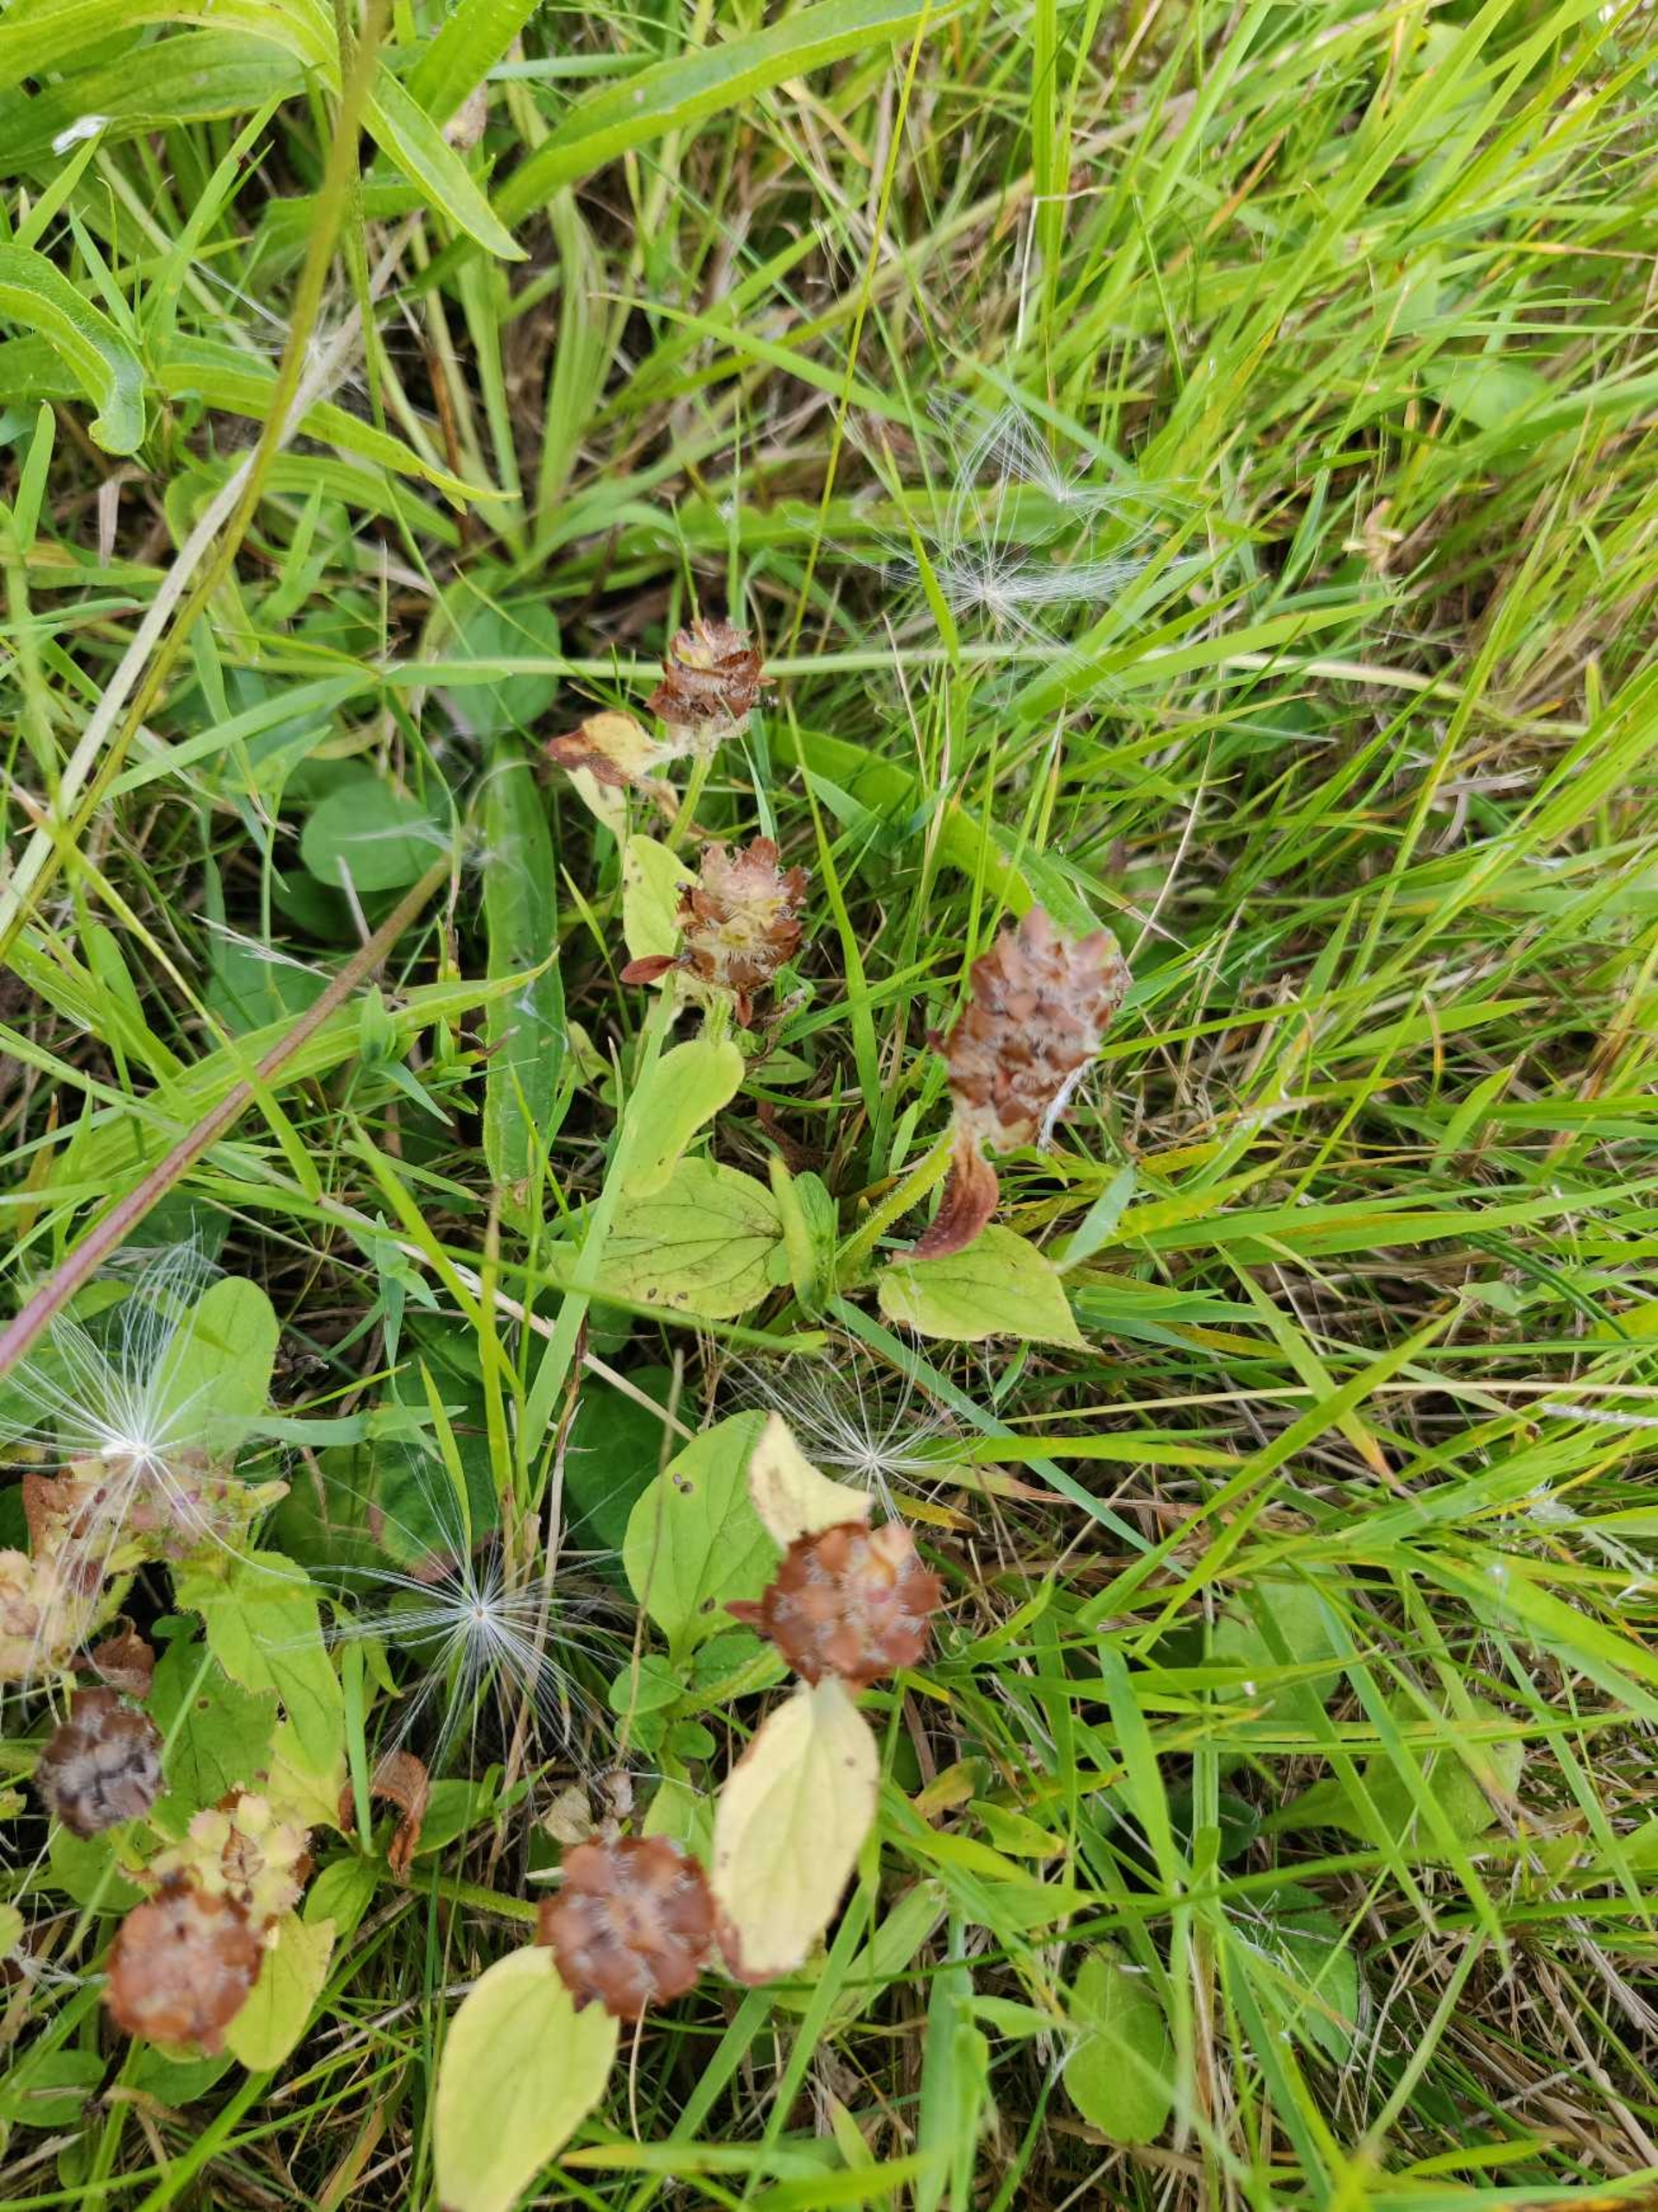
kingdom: Plantae
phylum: Tracheophyta
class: Magnoliopsida
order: Lamiales
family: Lamiaceae
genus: Prunella
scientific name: Prunella vulgaris
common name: Almindelig brunelle
